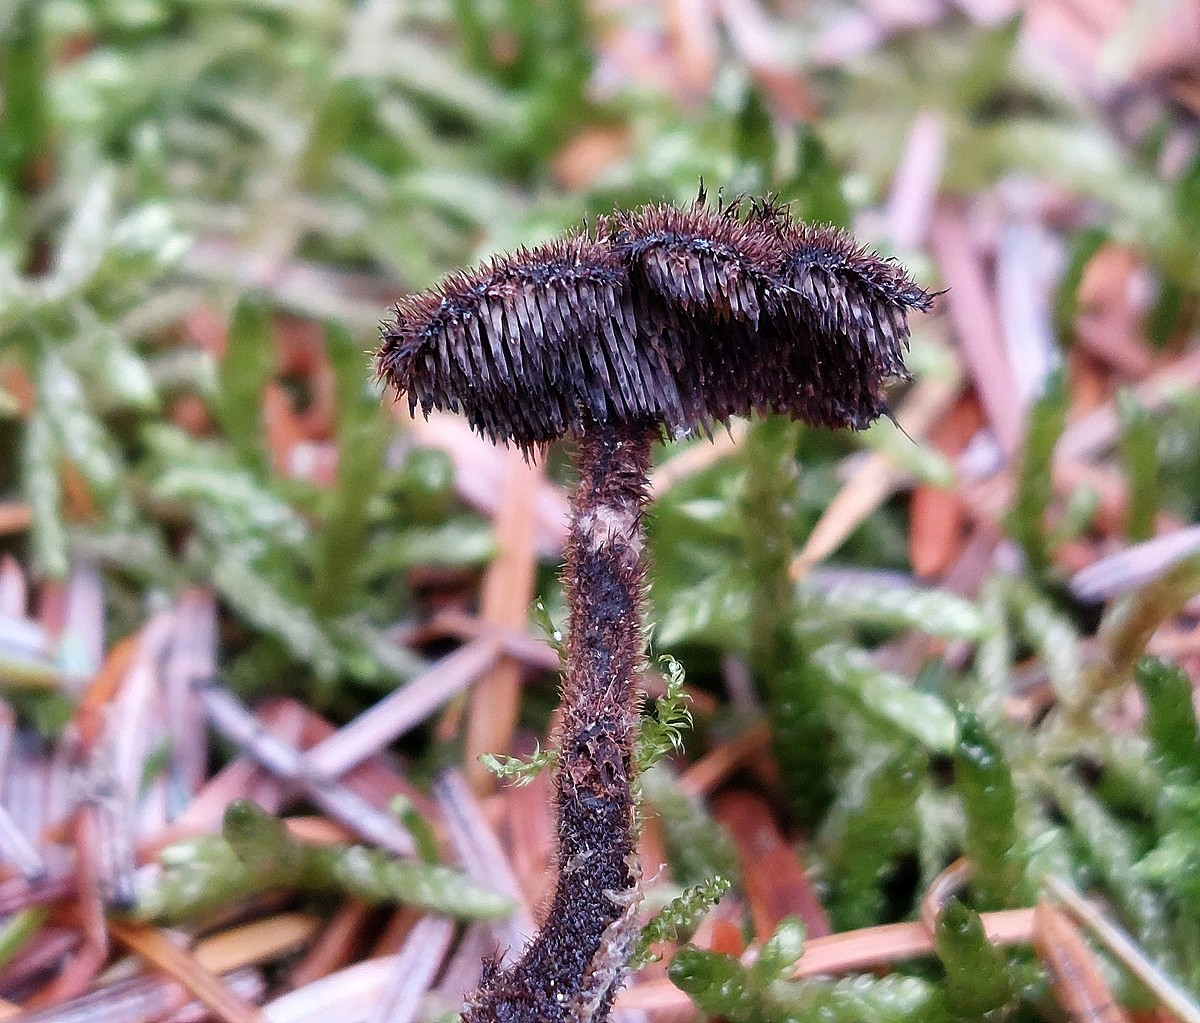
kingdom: Fungi
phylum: Basidiomycota
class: Agaricomycetes
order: Russulales
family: Auriscalpiaceae
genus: Auriscalpium
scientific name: Auriscalpium vulgare
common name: koglepigsvamp
